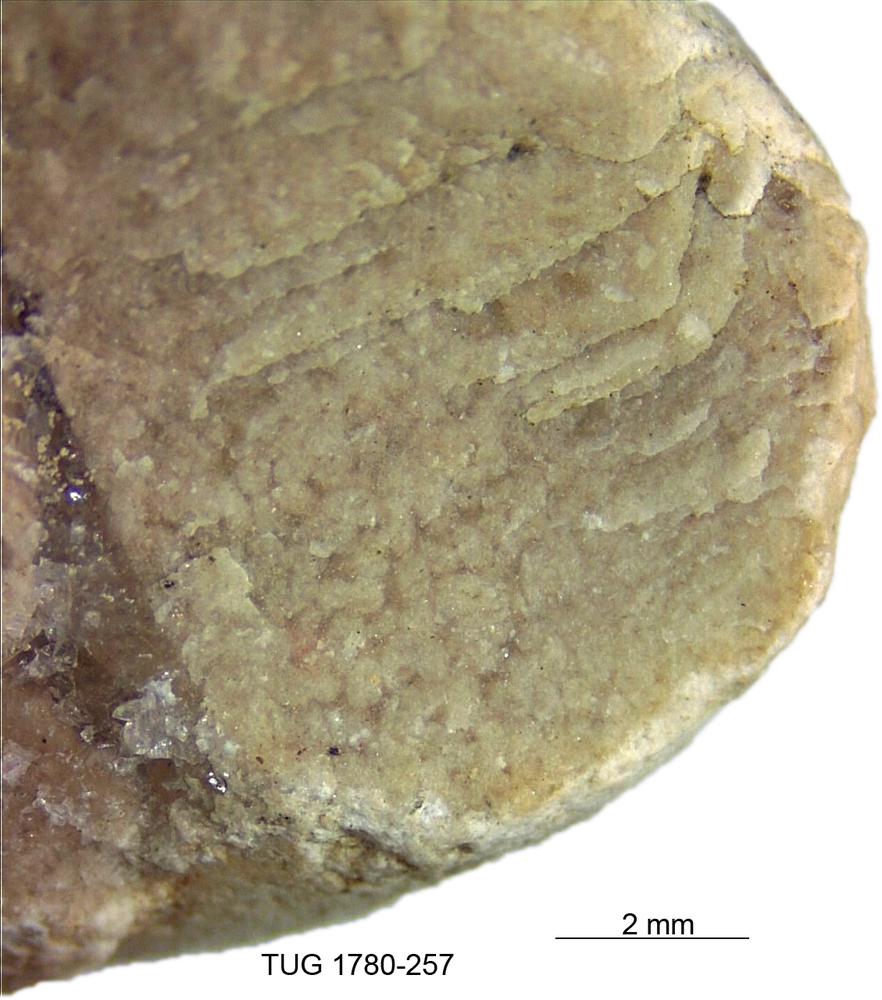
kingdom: Animalia
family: Coprulidae
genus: Coprulus
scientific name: Coprulus
